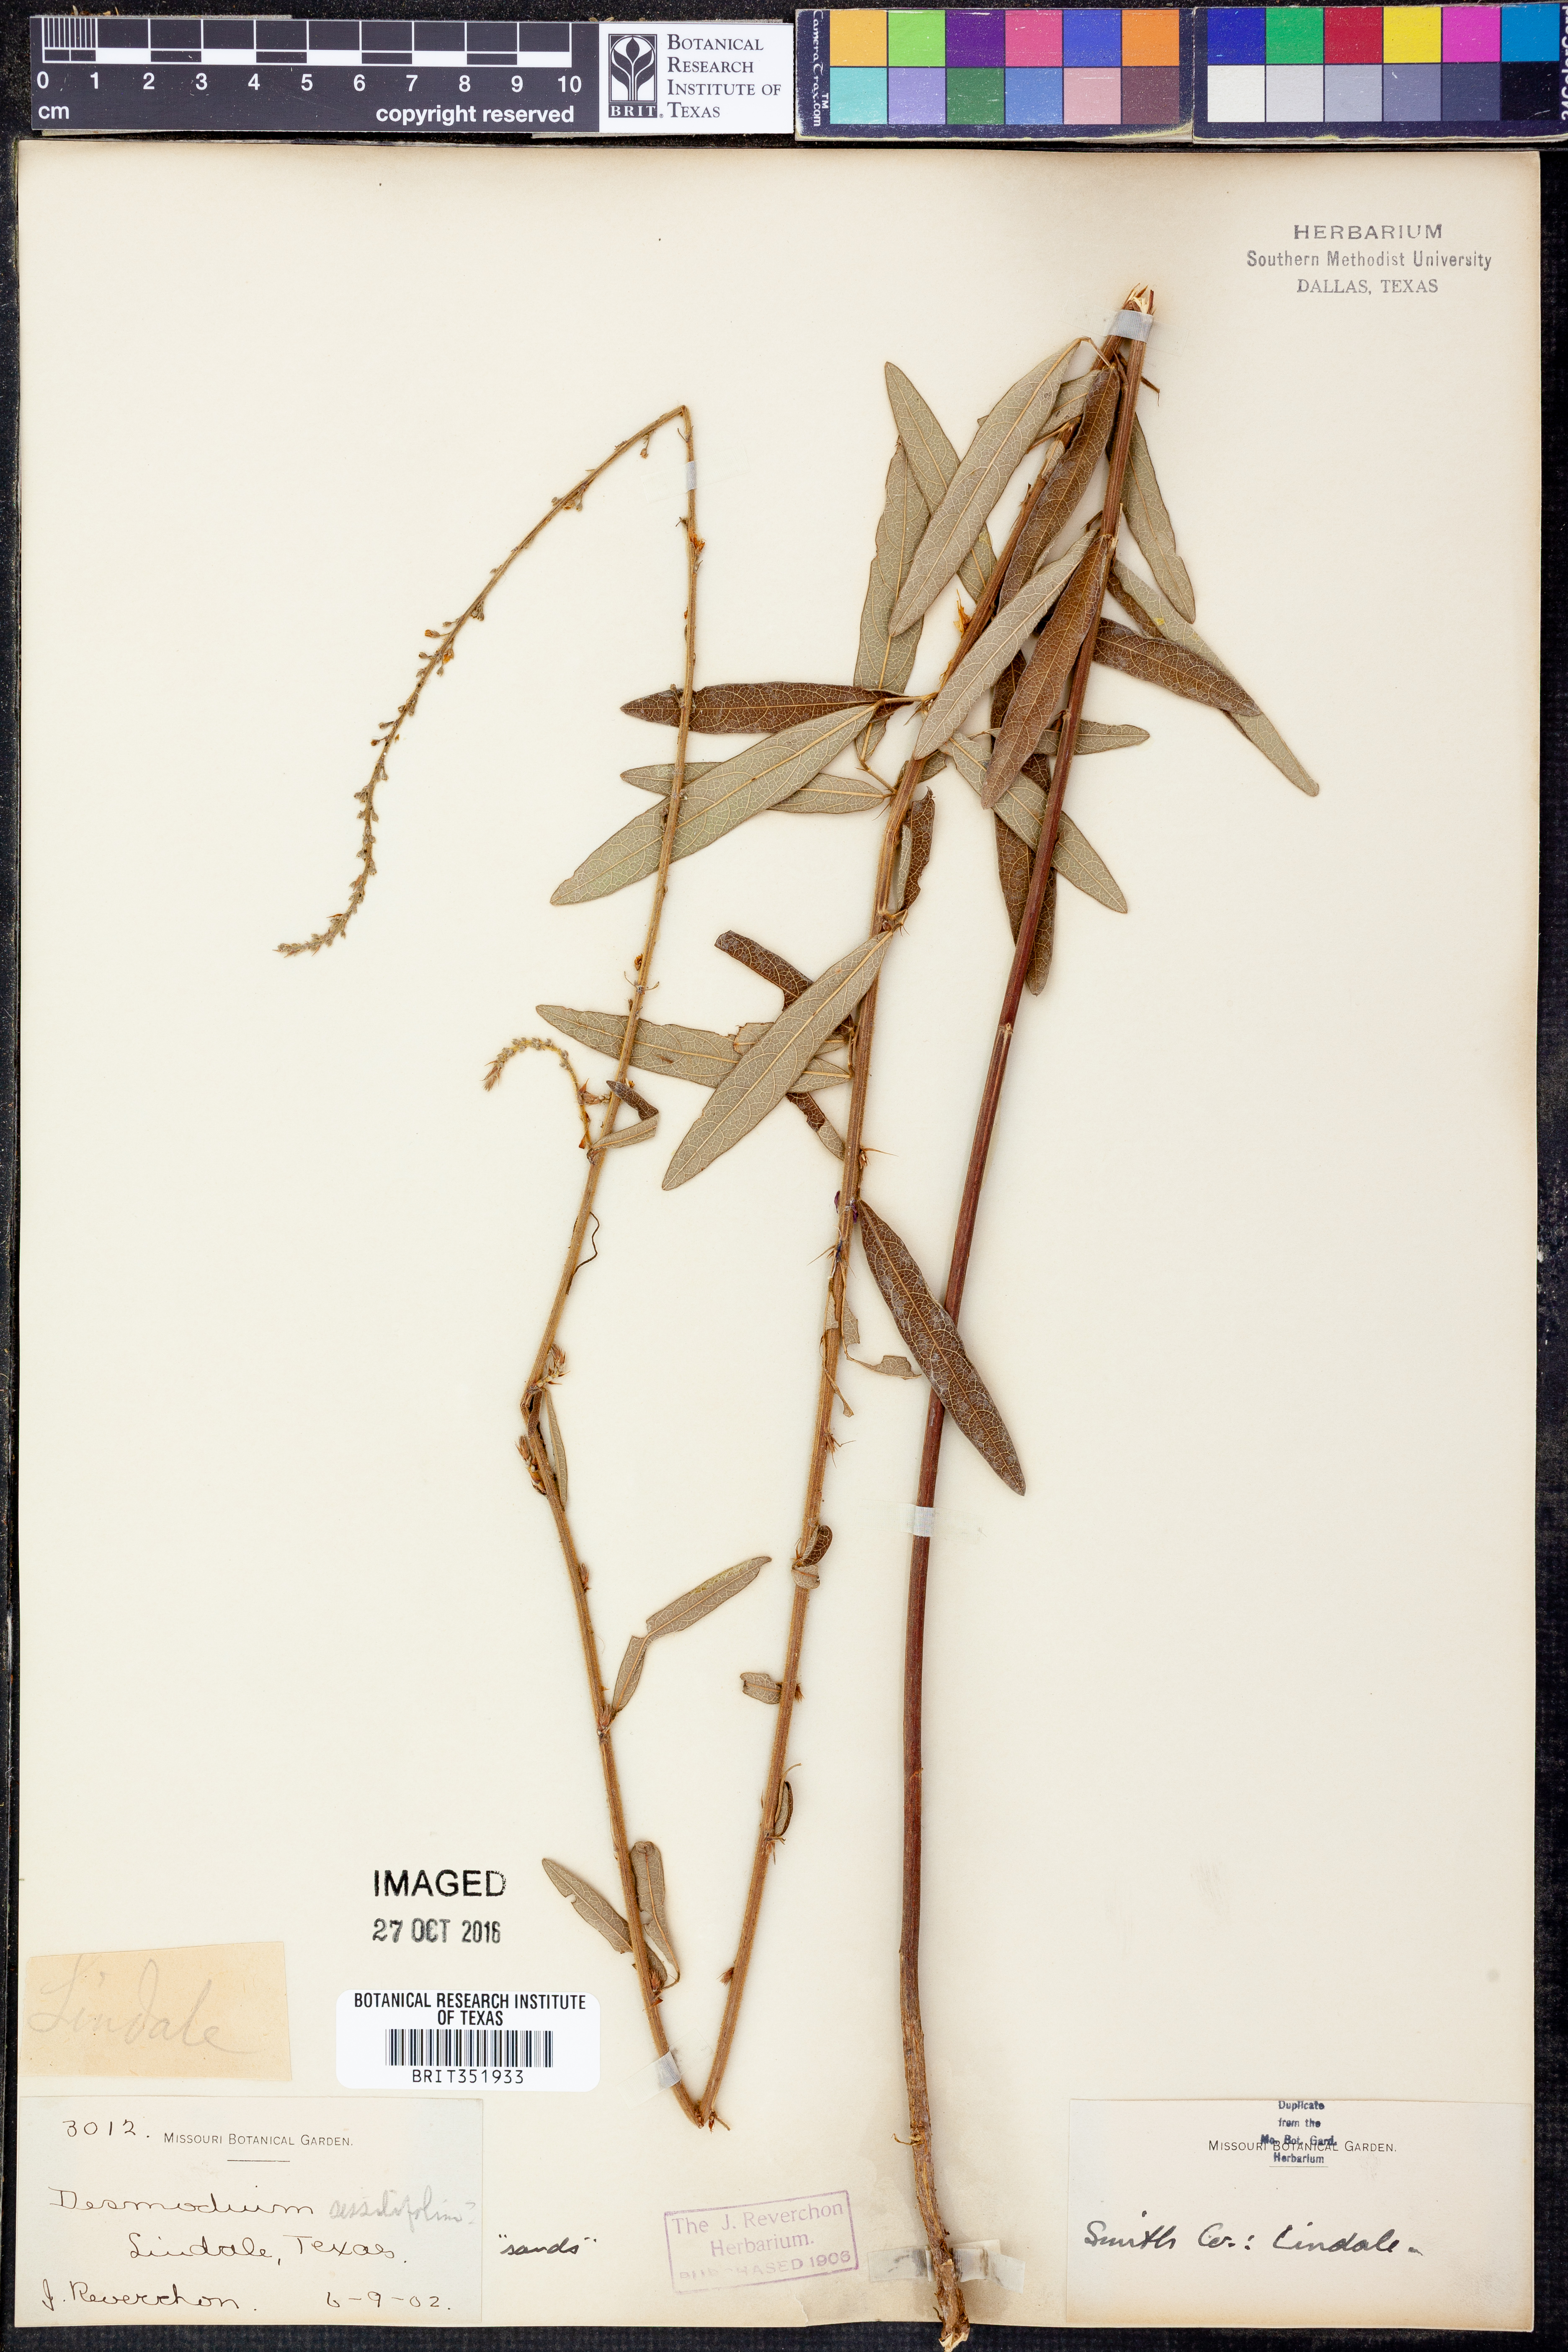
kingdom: Plantae
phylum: Tracheophyta
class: Magnoliopsida
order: Fabales
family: Fabaceae
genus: Desmodium
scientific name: Desmodium sessilifolium
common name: Sessile tick-clover
